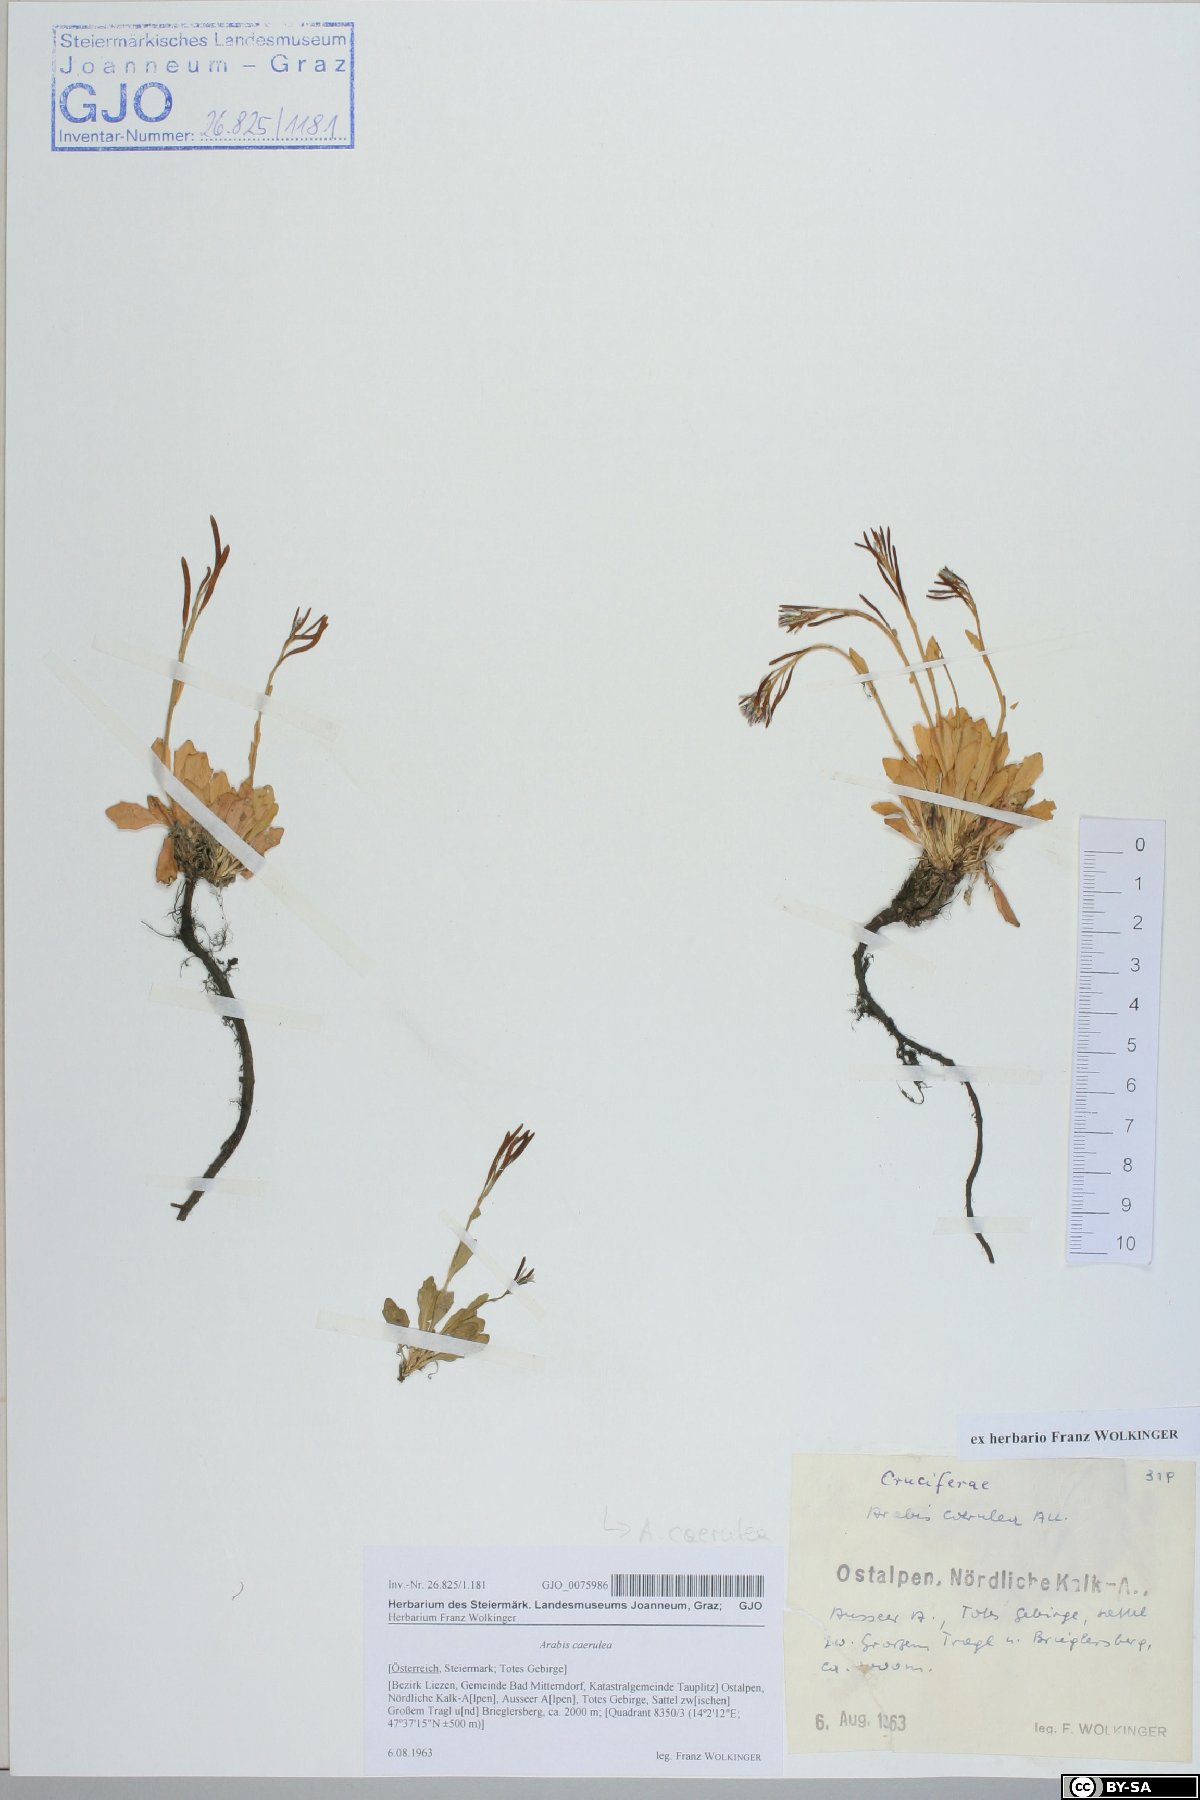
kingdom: Plantae
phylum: Tracheophyta
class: Magnoliopsida
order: Brassicales
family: Brassicaceae
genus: Arabis
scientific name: Arabis caerulea
